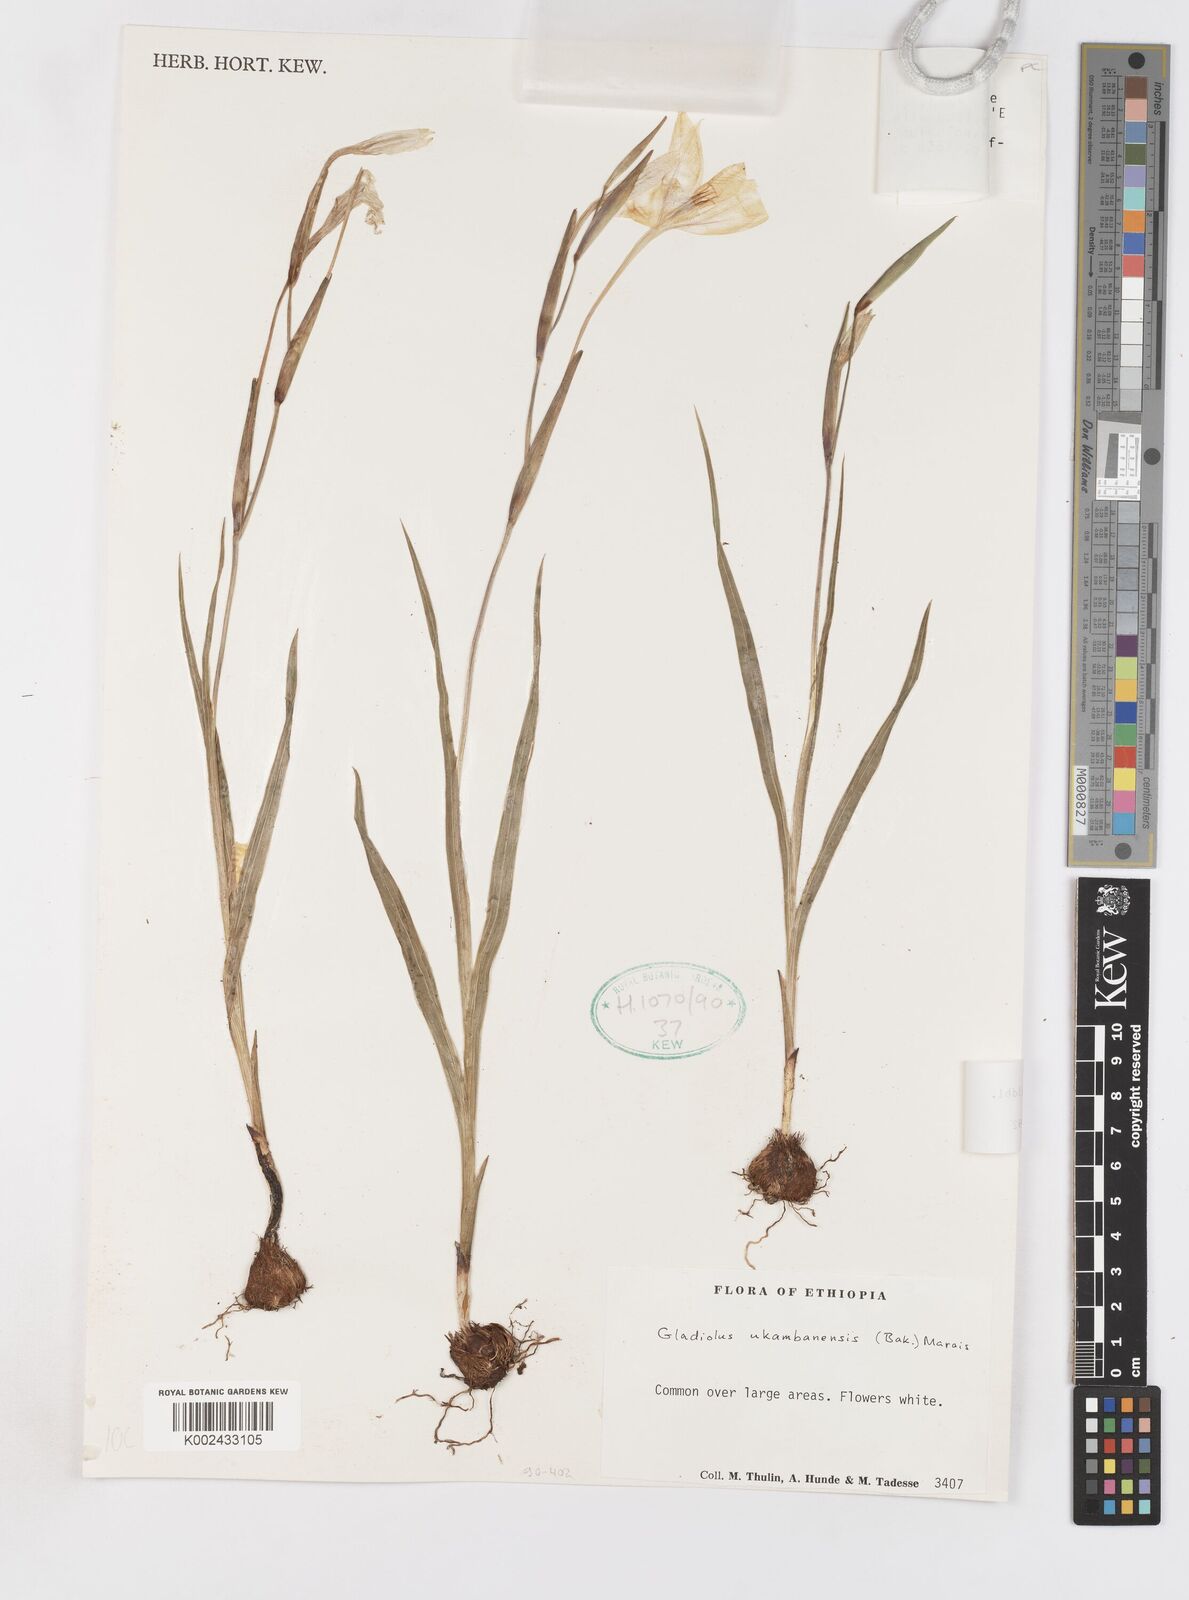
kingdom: Plantae
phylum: Tracheophyta
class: Liliopsida
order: Asparagales
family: Iridaceae
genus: Gladiolus
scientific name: Gladiolus candidus
